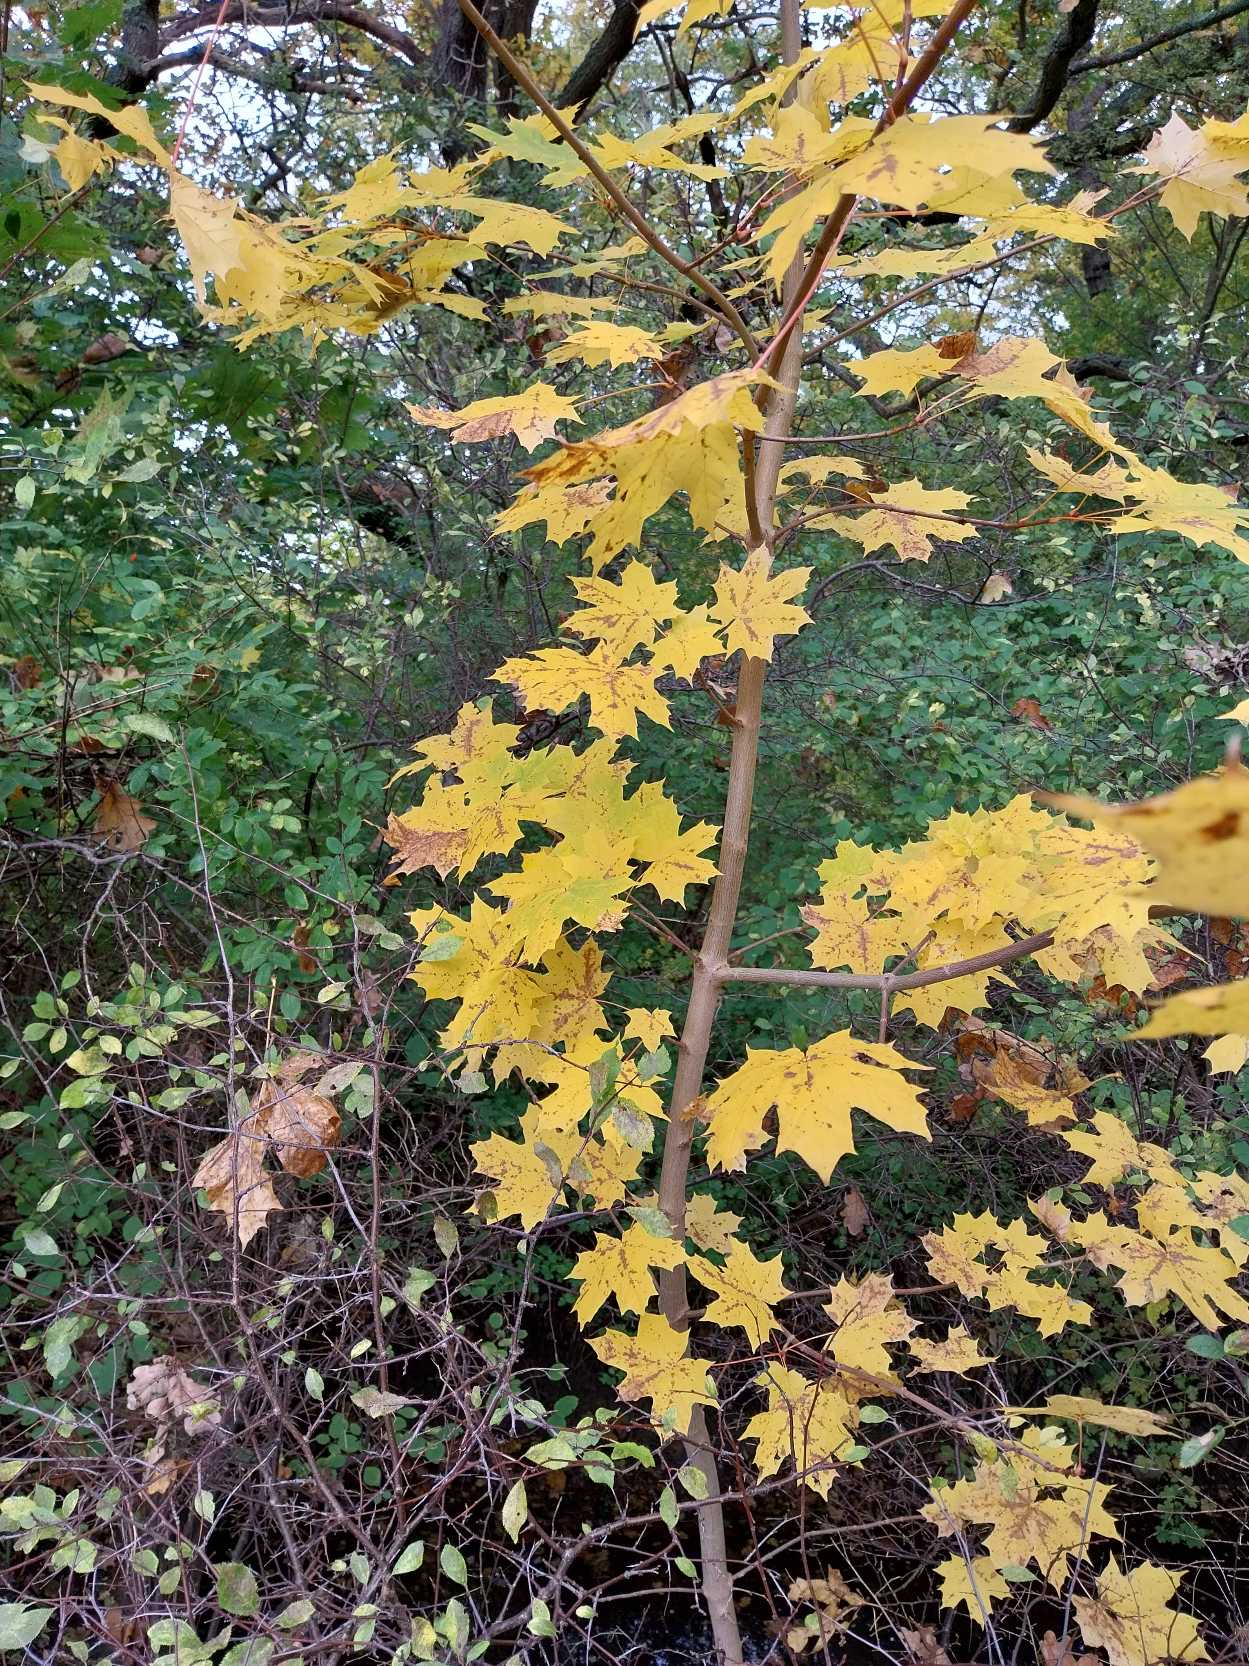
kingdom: Plantae
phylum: Tracheophyta
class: Magnoliopsida
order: Sapindales
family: Sapindaceae
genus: Acer
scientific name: Acer platanoides
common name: Spids-løn
